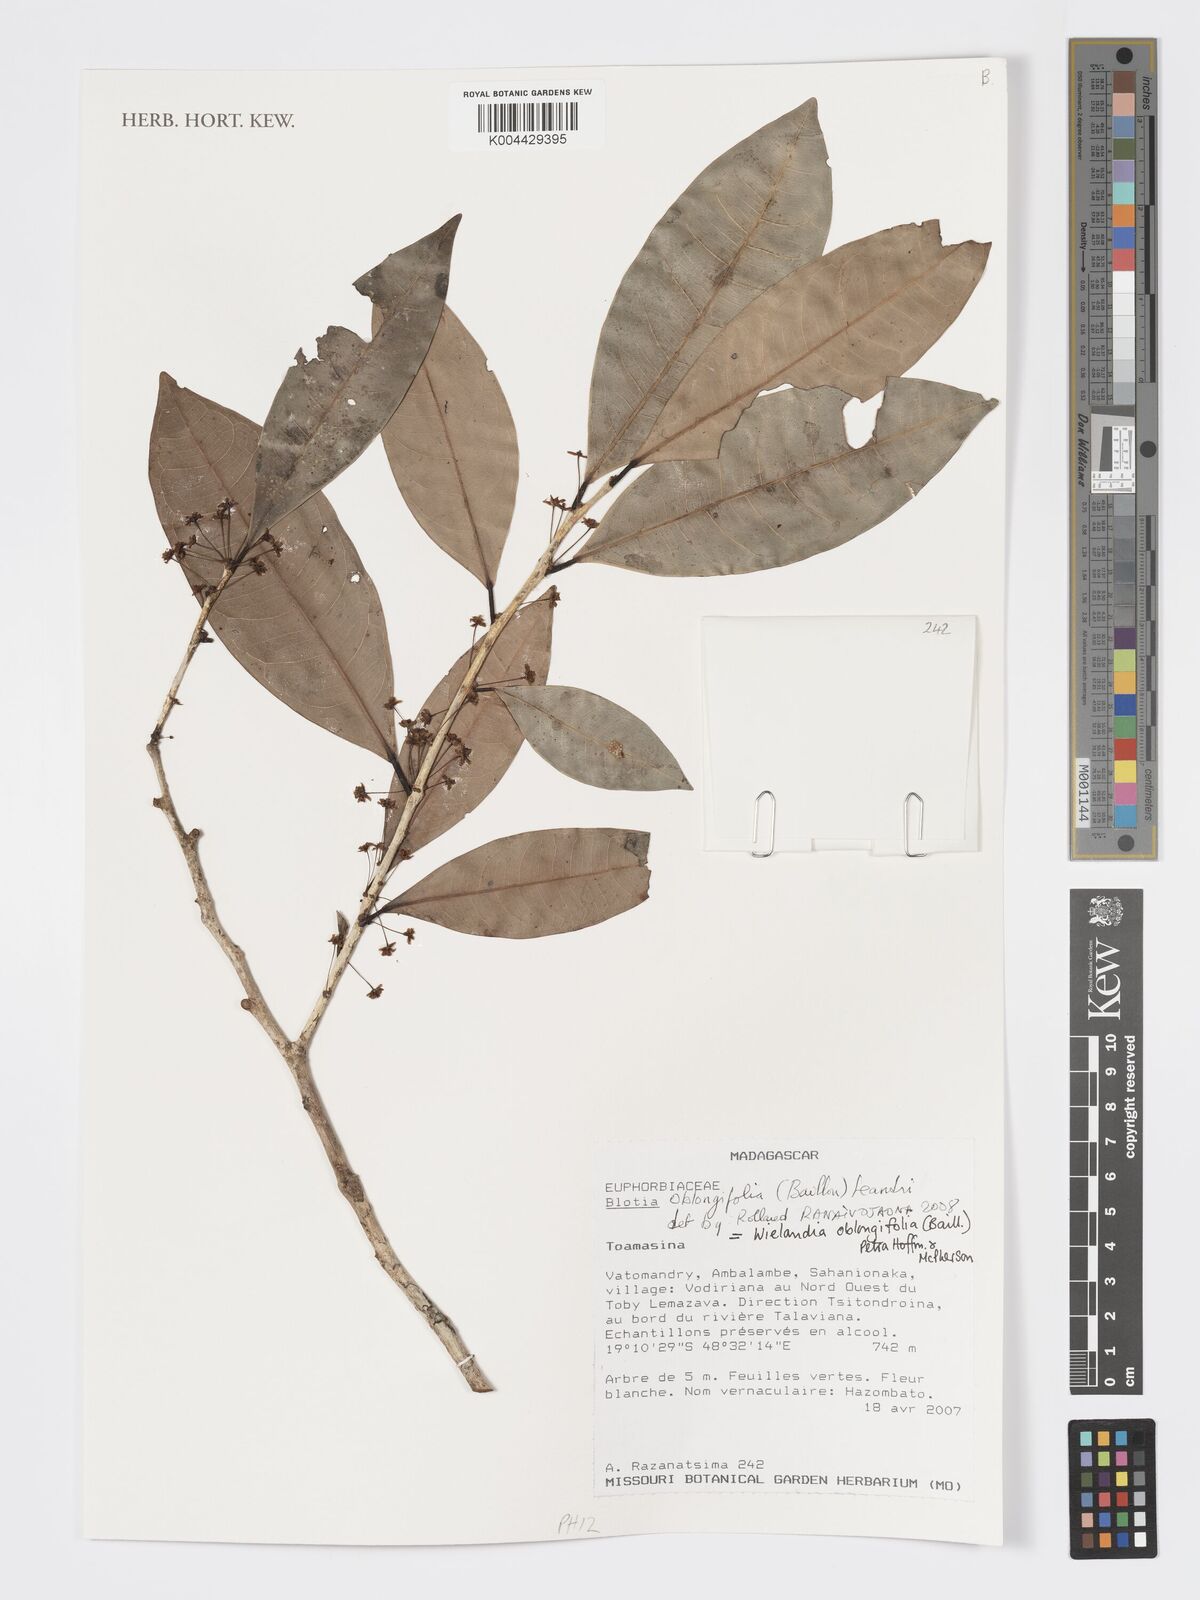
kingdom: Plantae
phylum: Tracheophyta
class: Magnoliopsida
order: Malpighiales
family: Phyllanthaceae
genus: Wielandia
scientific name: Wielandia oblongifolia
